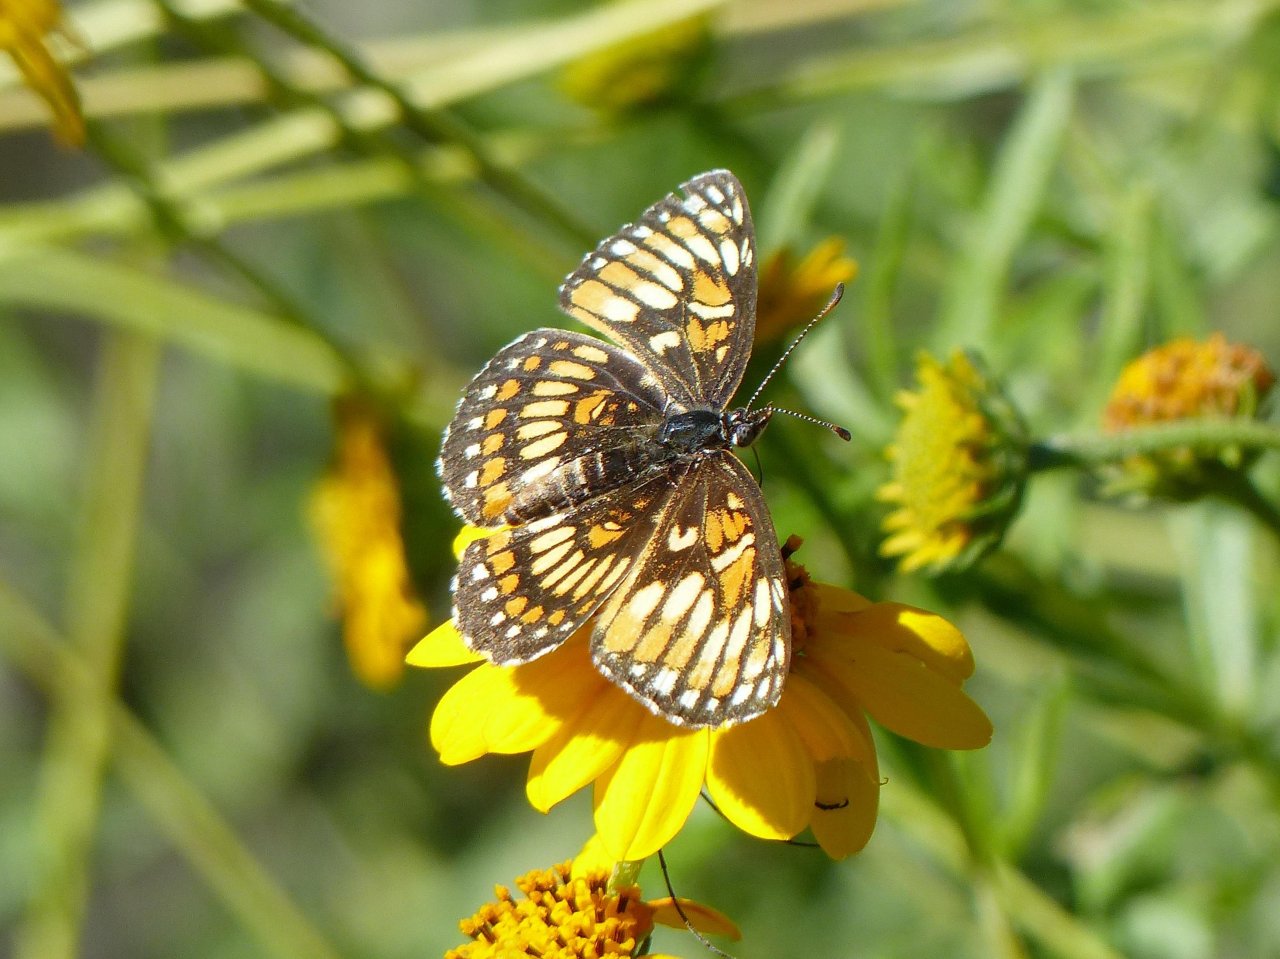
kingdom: Animalia
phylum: Arthropoda
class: Insecta
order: Lepidoptera
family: Nymphalidae
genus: Thessalia
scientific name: Thessalia theona
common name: Theona Checkerspot
